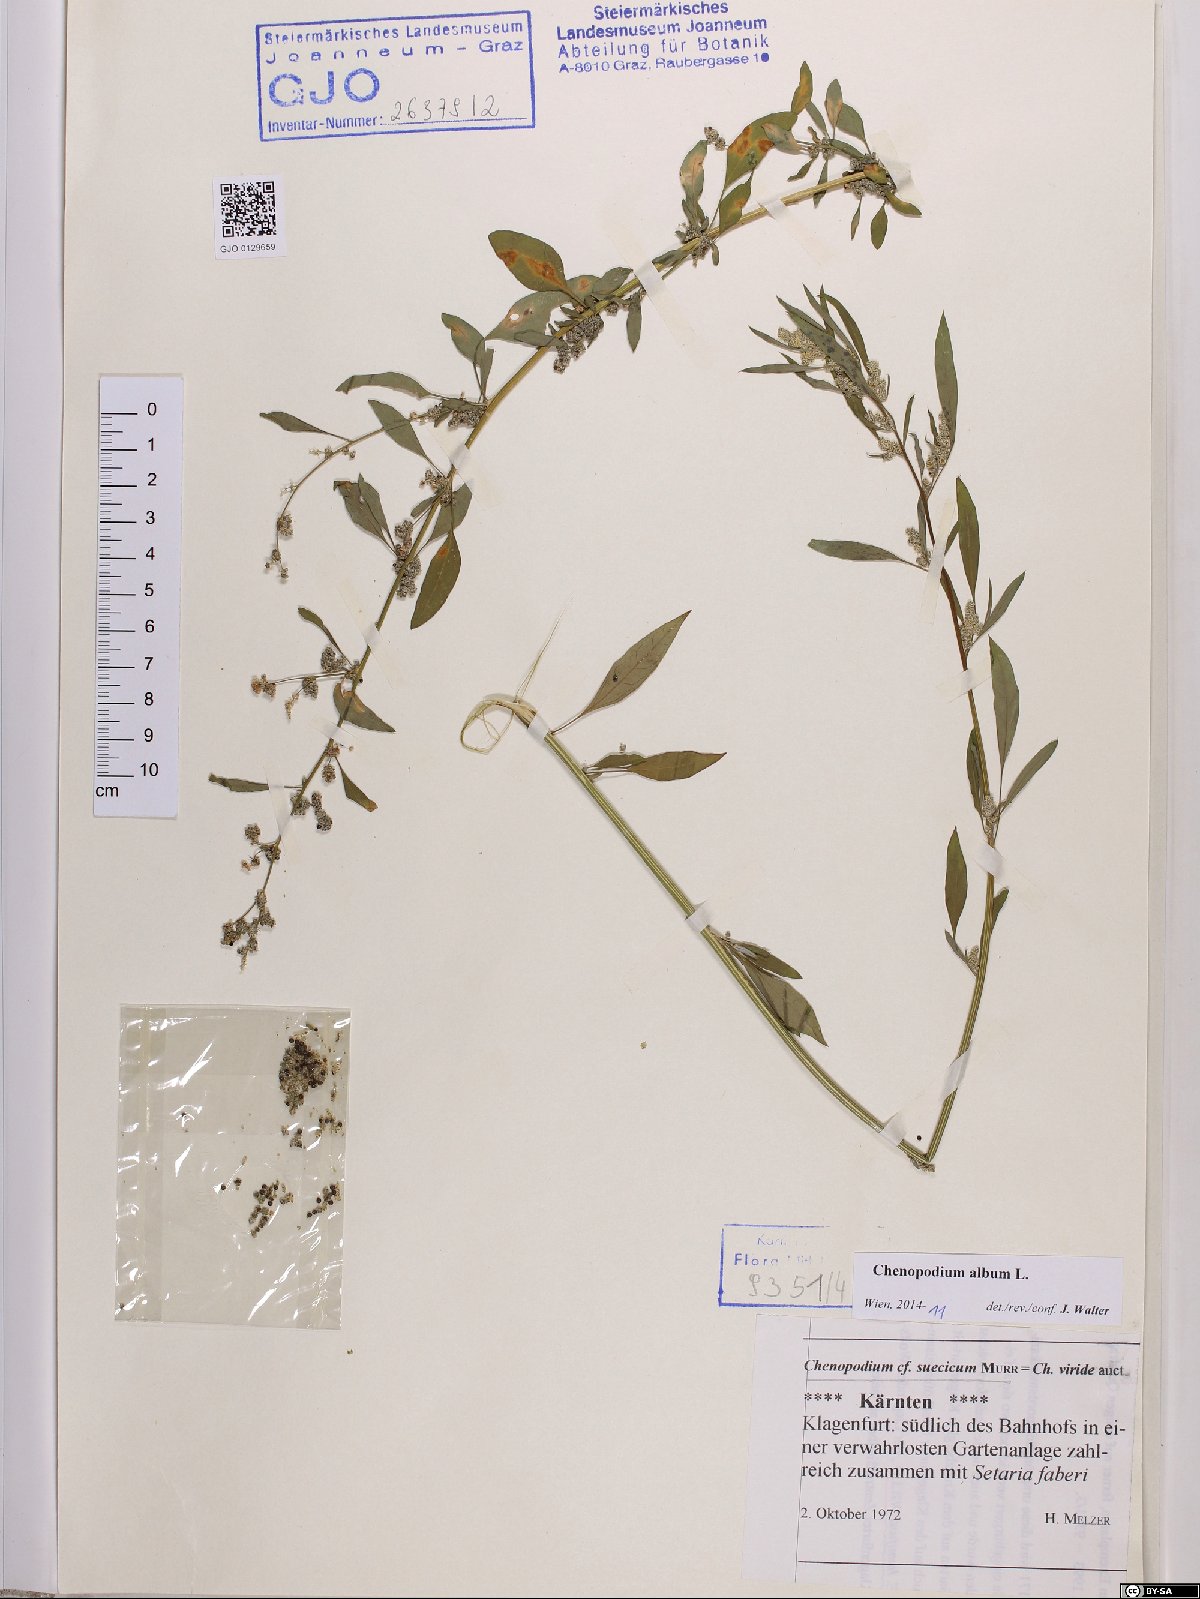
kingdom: Plantae
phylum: Tracheophyta
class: Magnoliopsida
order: Caryophyllales
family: Amaranthaceae
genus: Chenopodium
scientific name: Chenopodium album
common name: Fat-hen
